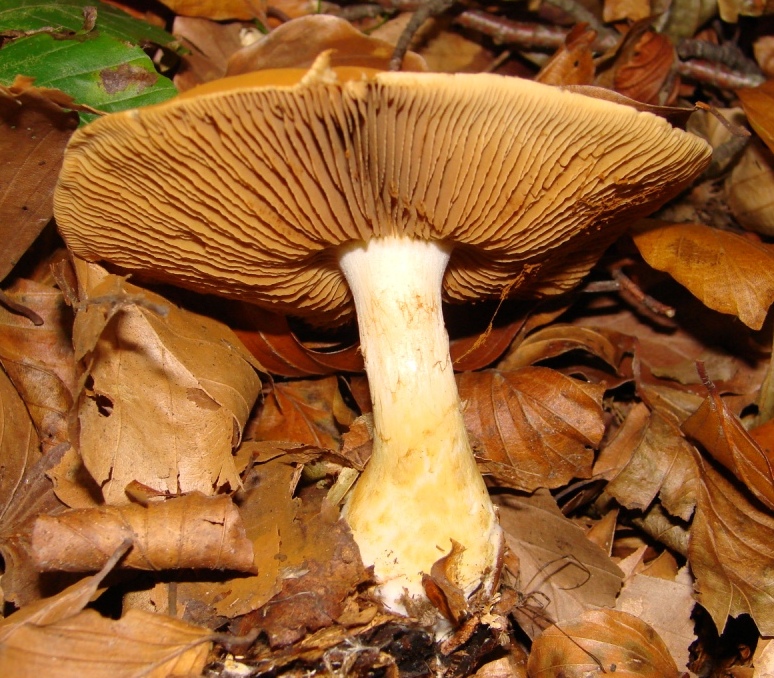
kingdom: Fungi
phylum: Basidiomycota
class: Agaricomycetes
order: Agaricales
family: Cortinariaceae
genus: Phlegmacium
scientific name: Phlegmacium cliduchus
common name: majs-slørhat
